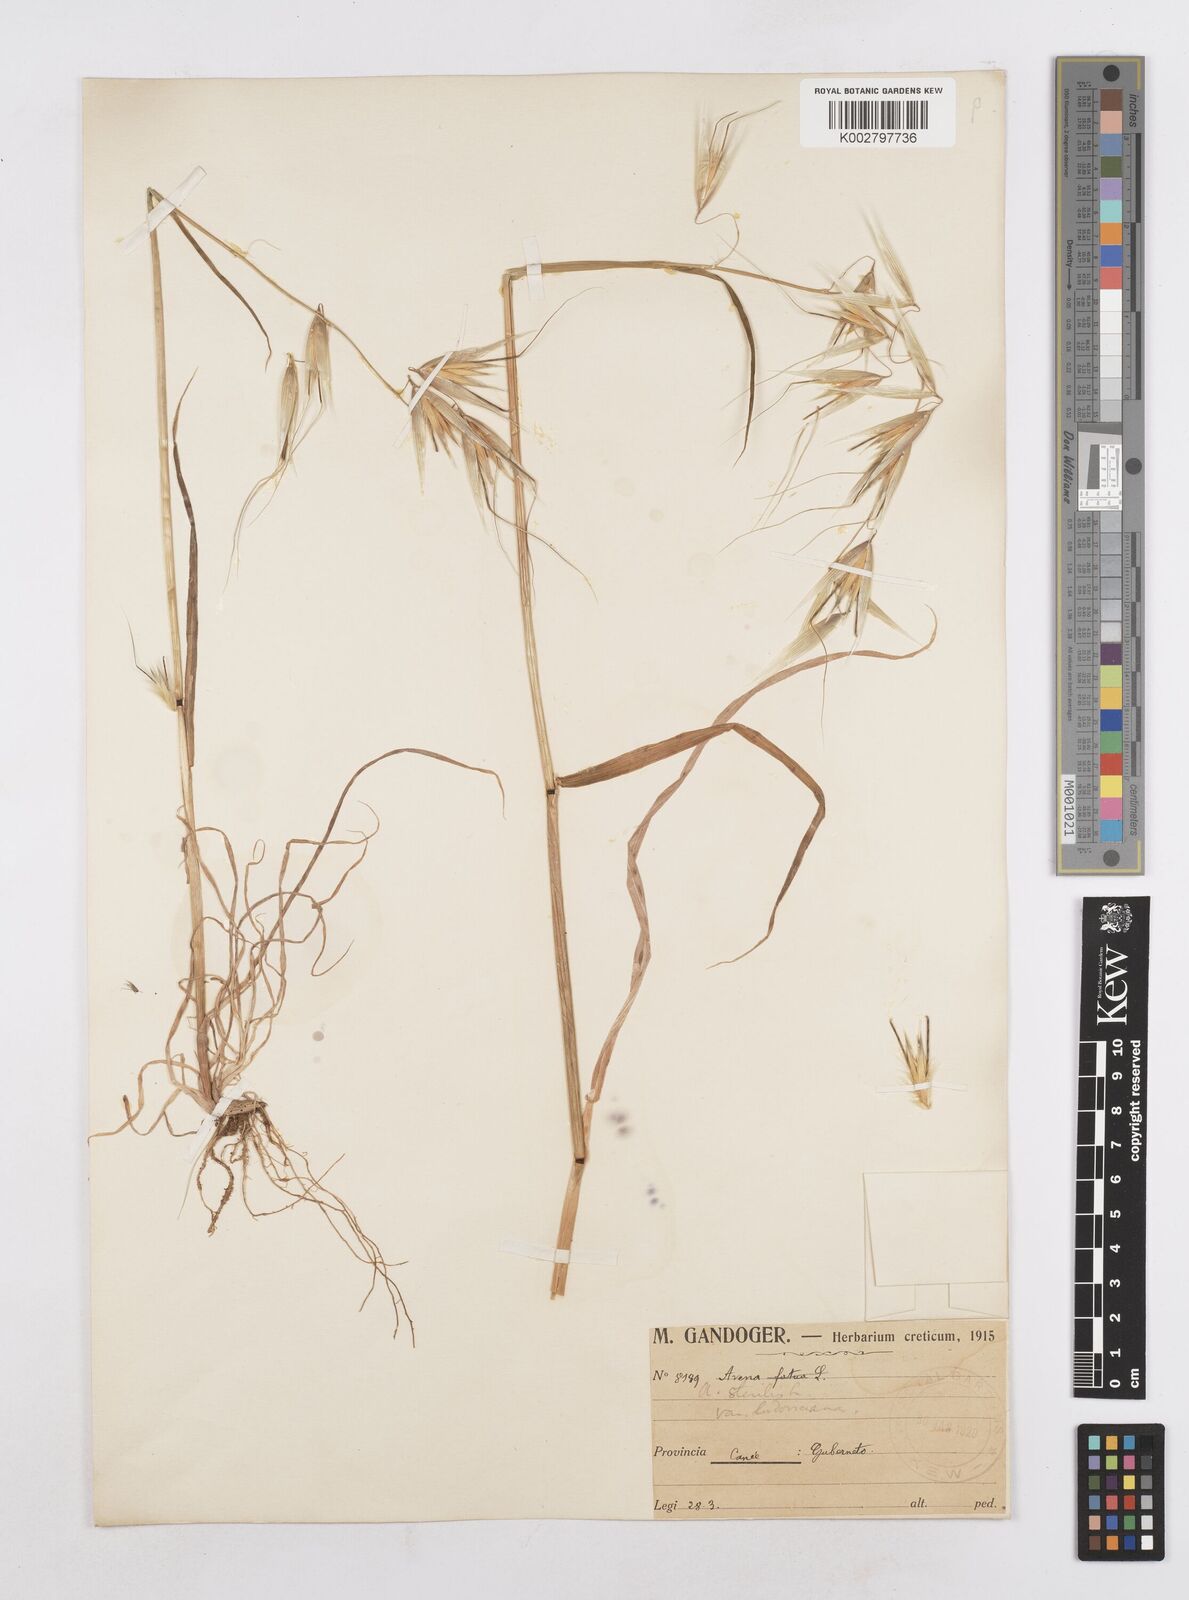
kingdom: Plantae
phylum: Tracheophyta
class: Liliopsida
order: Poales
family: Poaceae
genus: Avena
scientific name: Avena sterilis
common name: Animated oat
